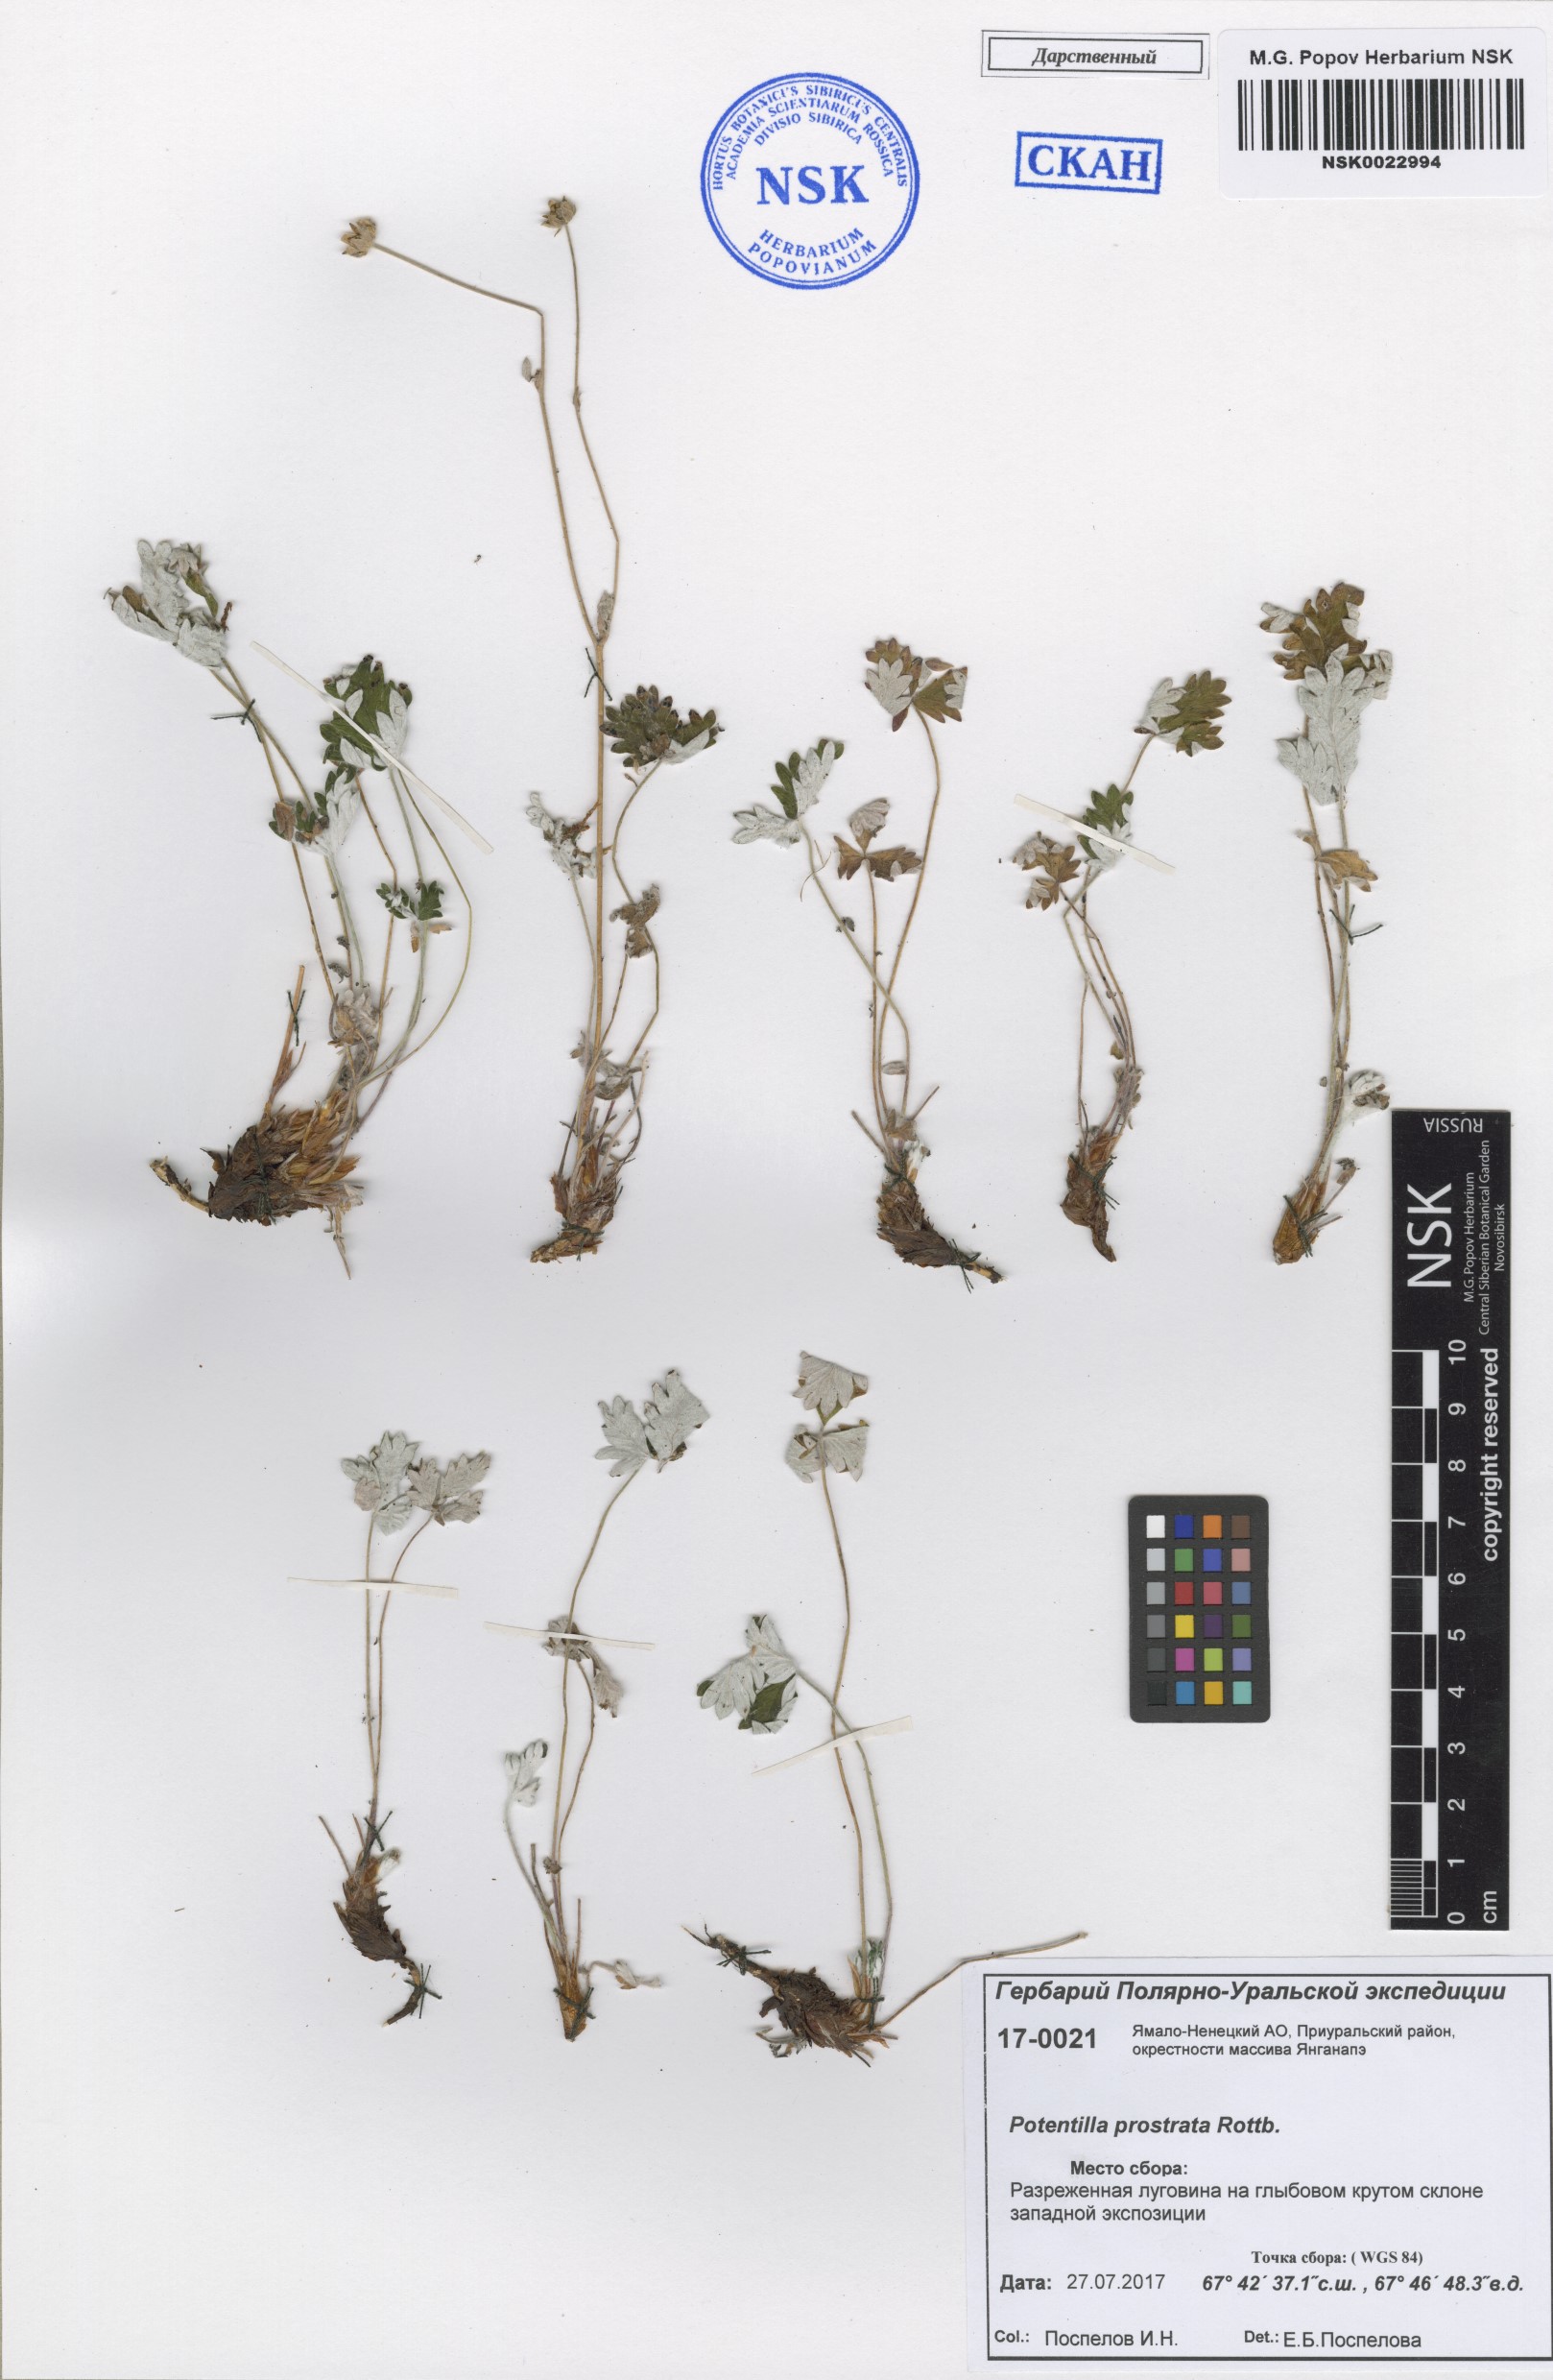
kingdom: Plantae
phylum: Tracheophyta
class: Magnoliopsida
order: Rosales
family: Rosaceae
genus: Potentilla
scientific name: Potentilla prostrata
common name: Prostrate cinquefoil
